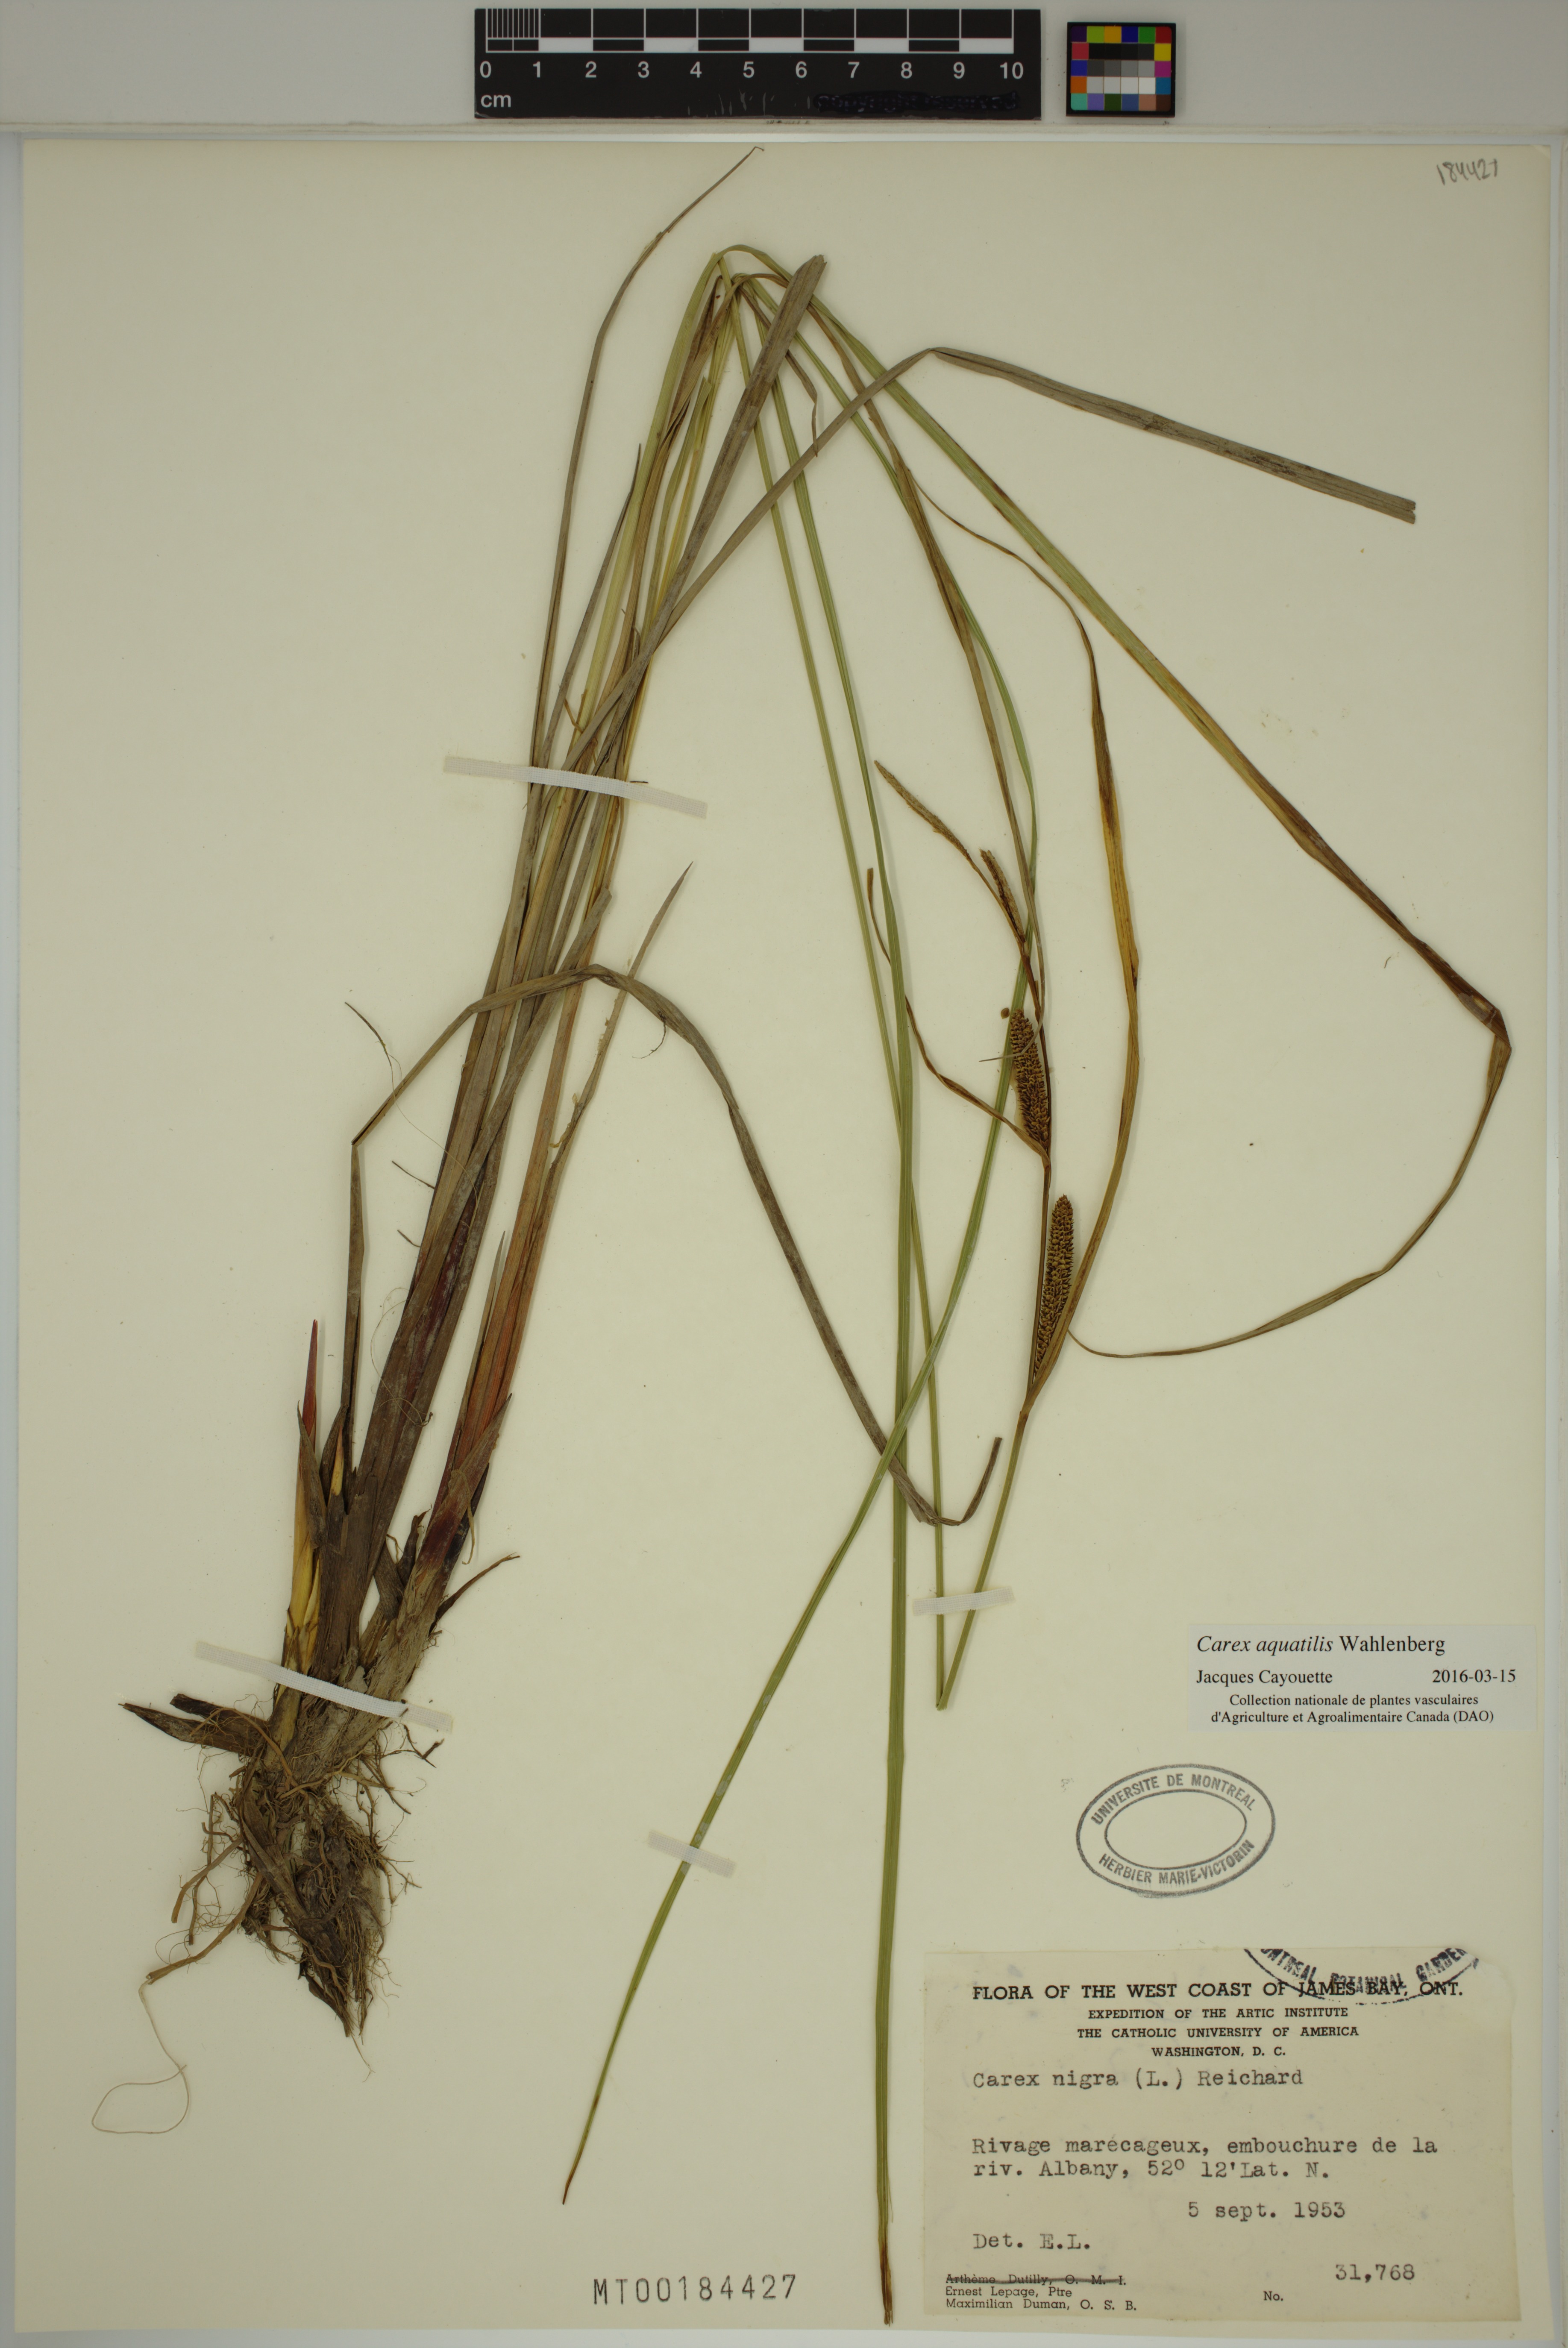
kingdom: Plantae
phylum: Tracheophyta
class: Liliopsida
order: Poales
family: Cyperaceae
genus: Carex
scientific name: Carex aquatilis
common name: Water sedge
